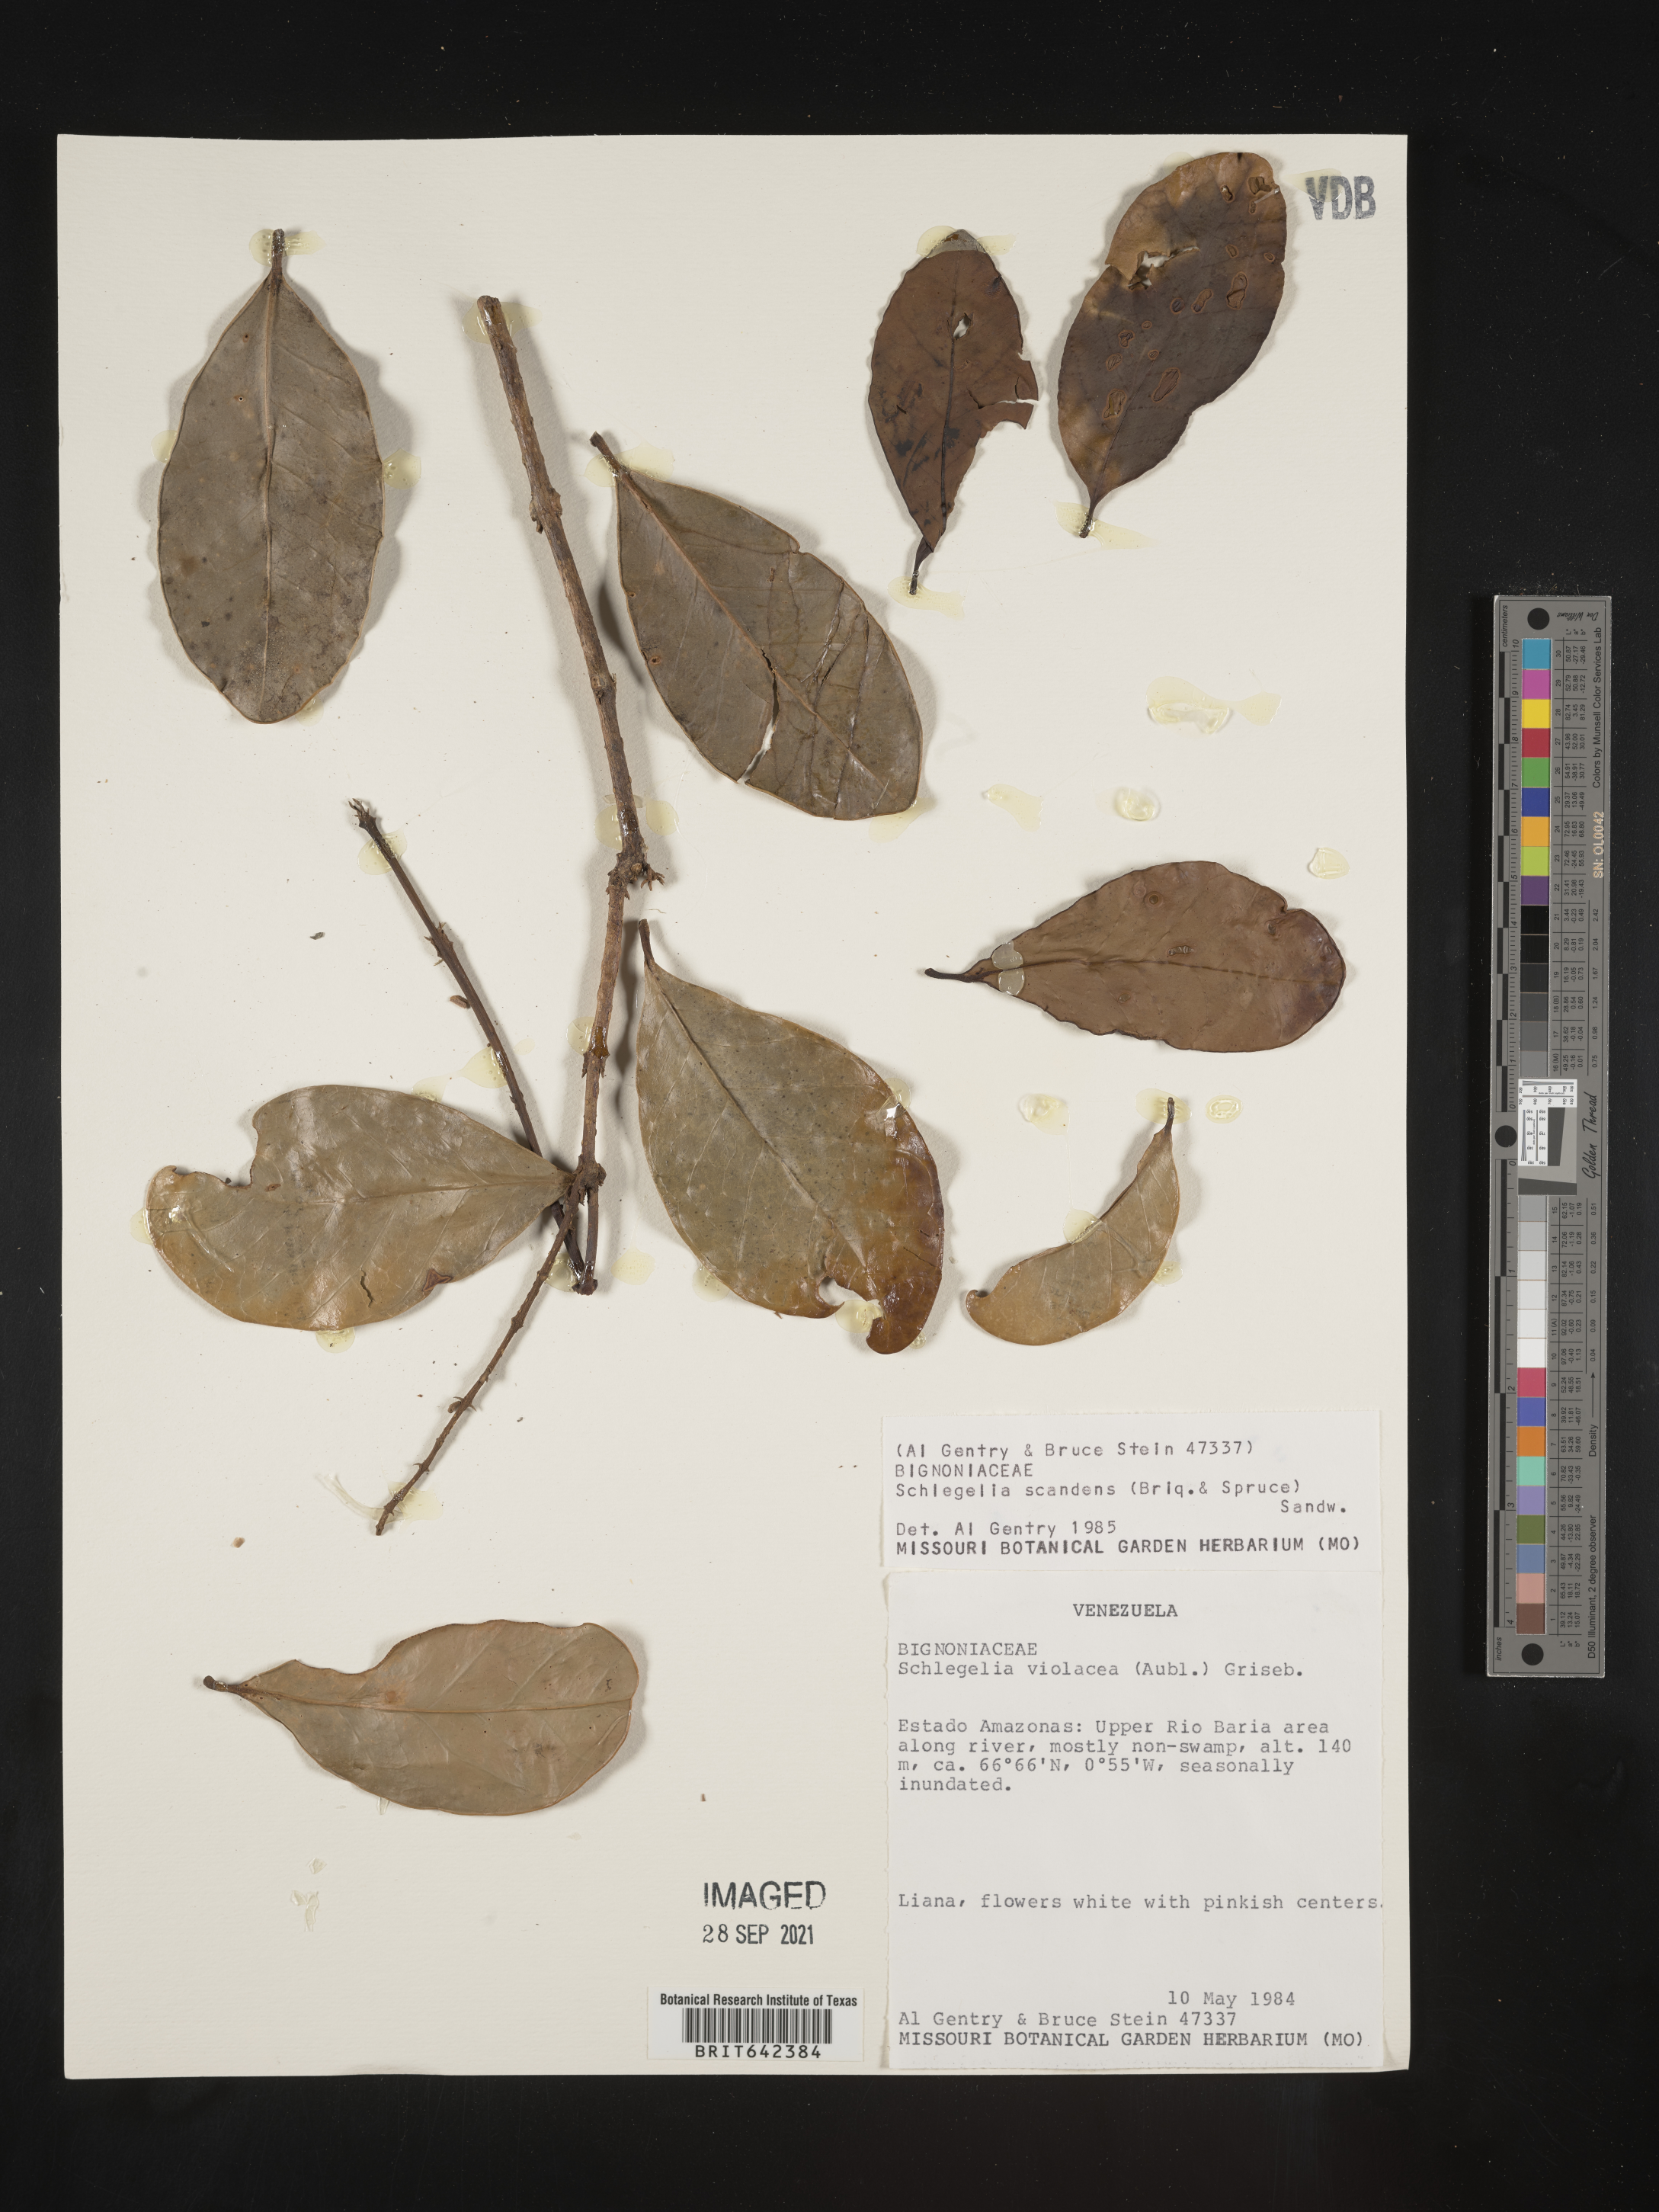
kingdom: Plantae
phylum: Tracheophyta
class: Magnoliopsida
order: Lamiales
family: Schlegeliaceae
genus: Schlegelia
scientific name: Schlegelia
